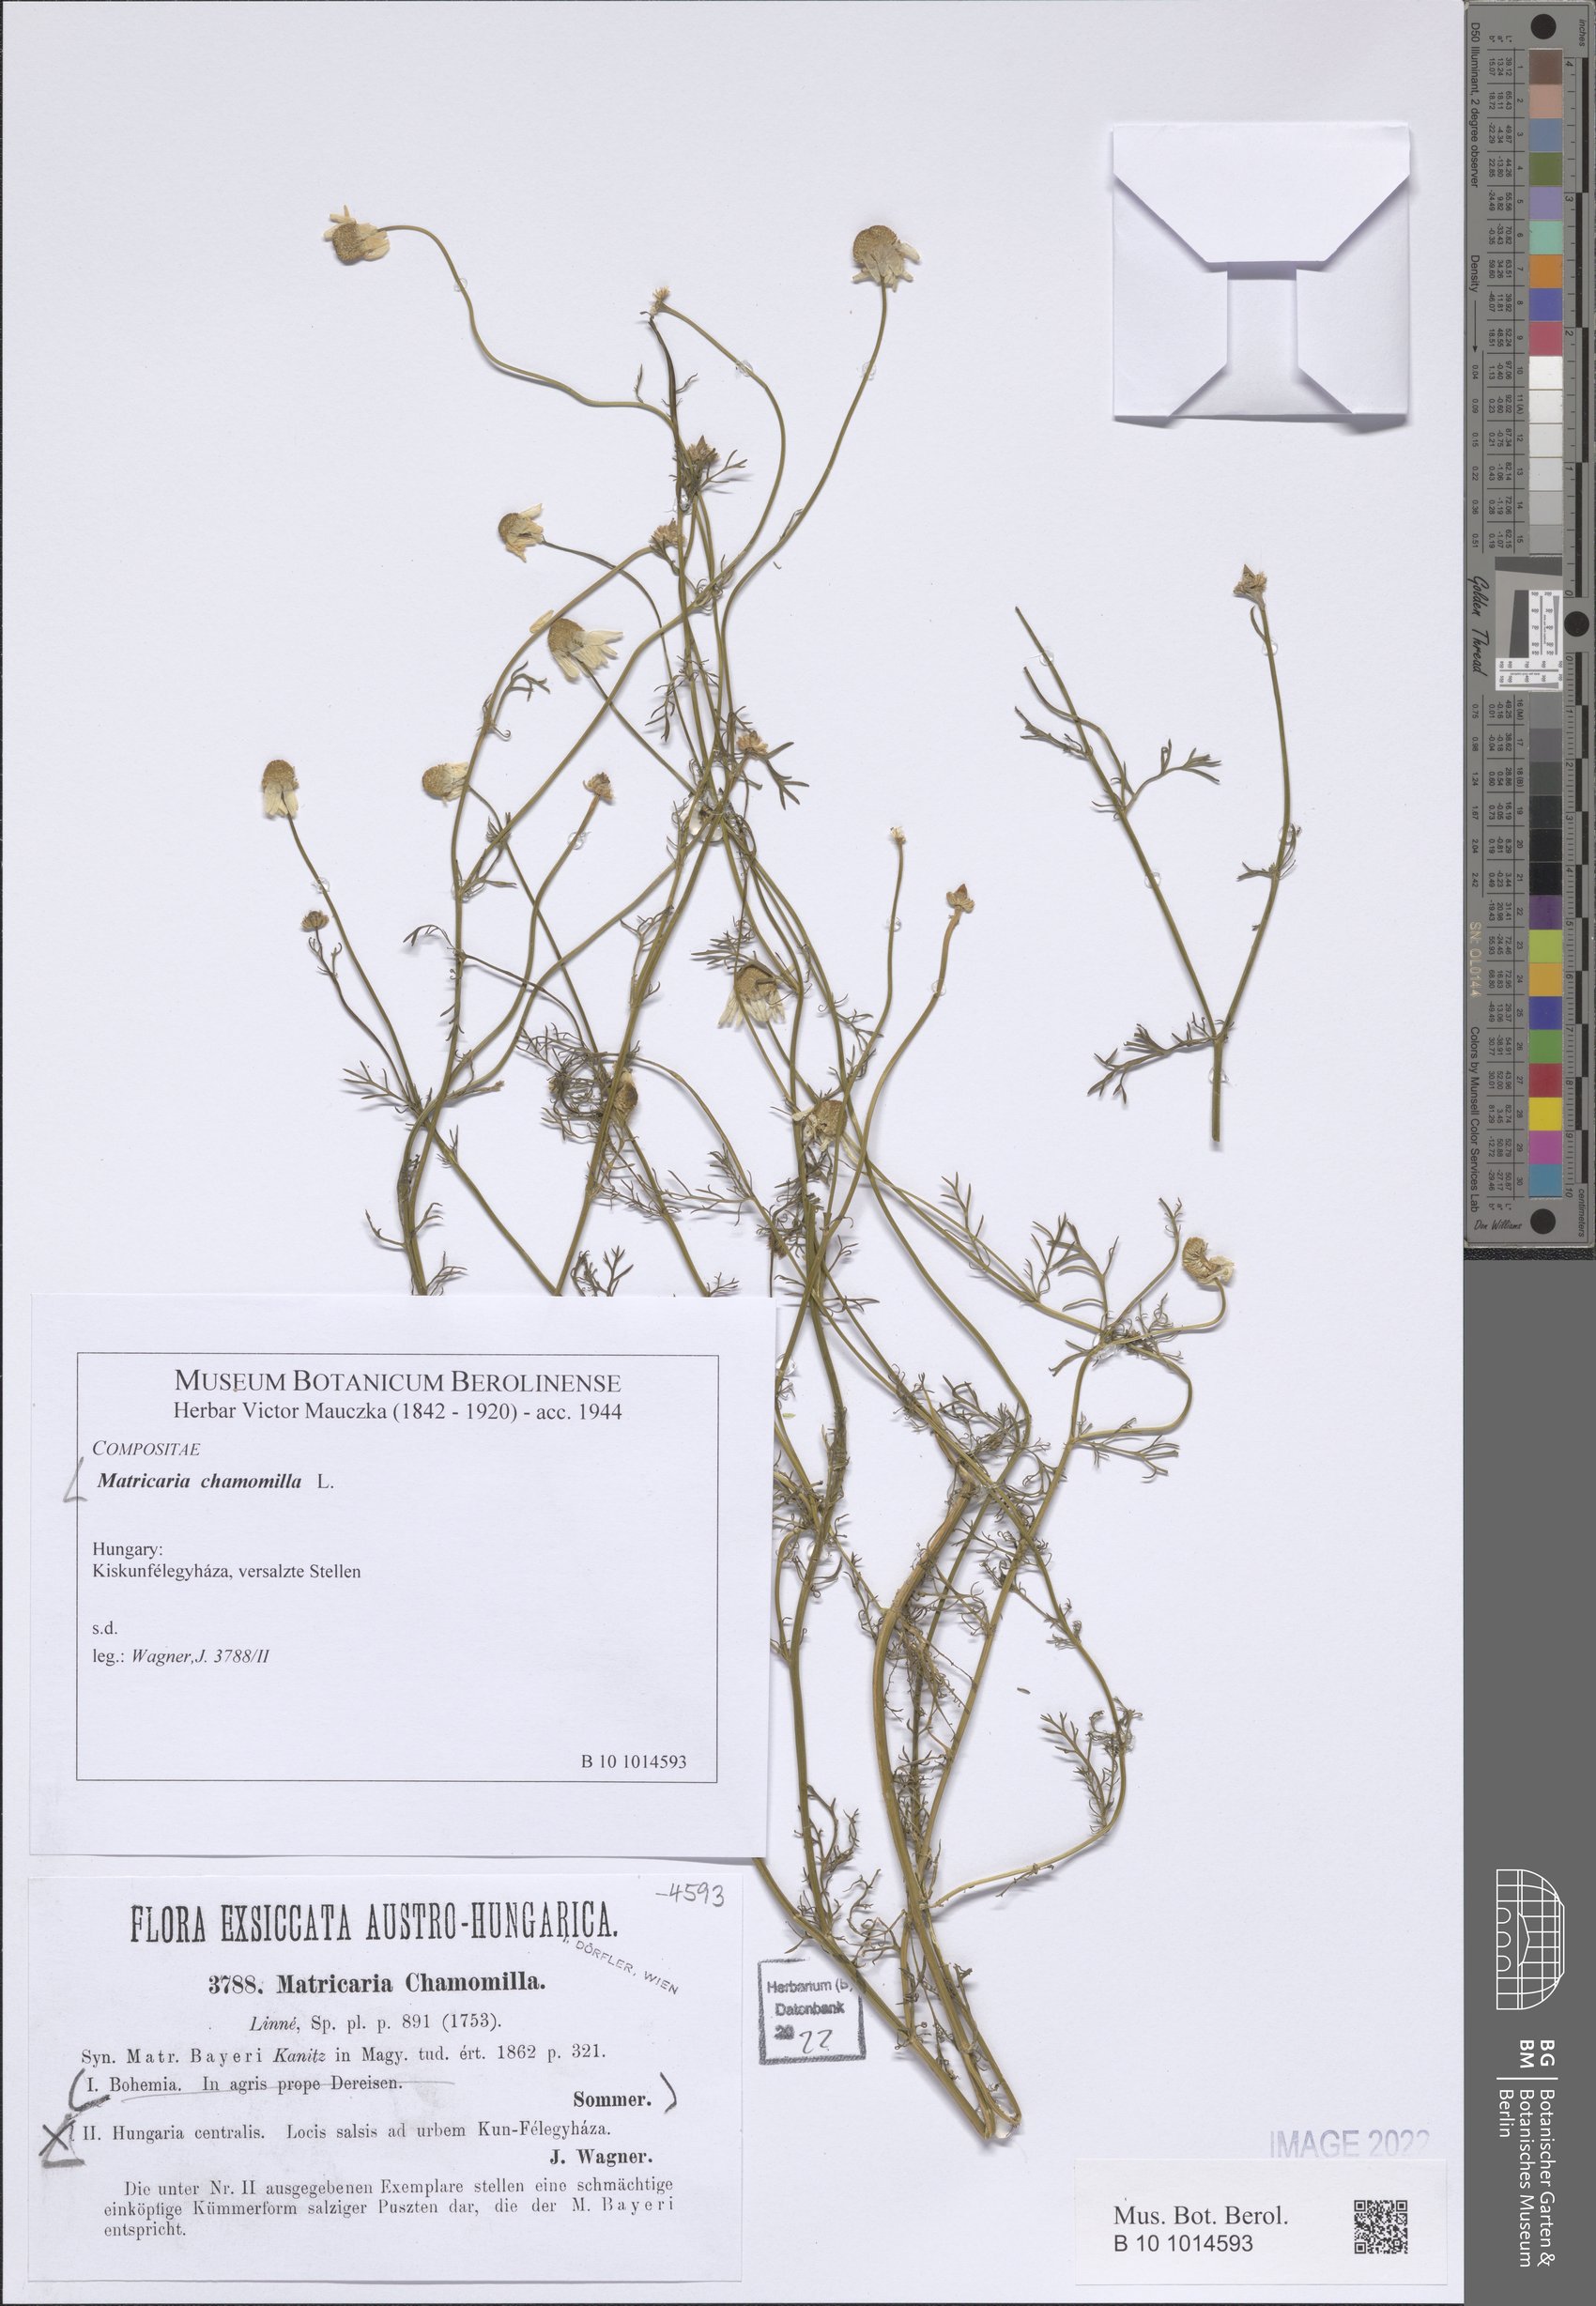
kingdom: Plantae
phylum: Tracheophyta
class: Magnoliopsida
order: Asterales
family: Asteraceae
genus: Matricaria
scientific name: Matricaria chamomilla
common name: Scented mayweed
